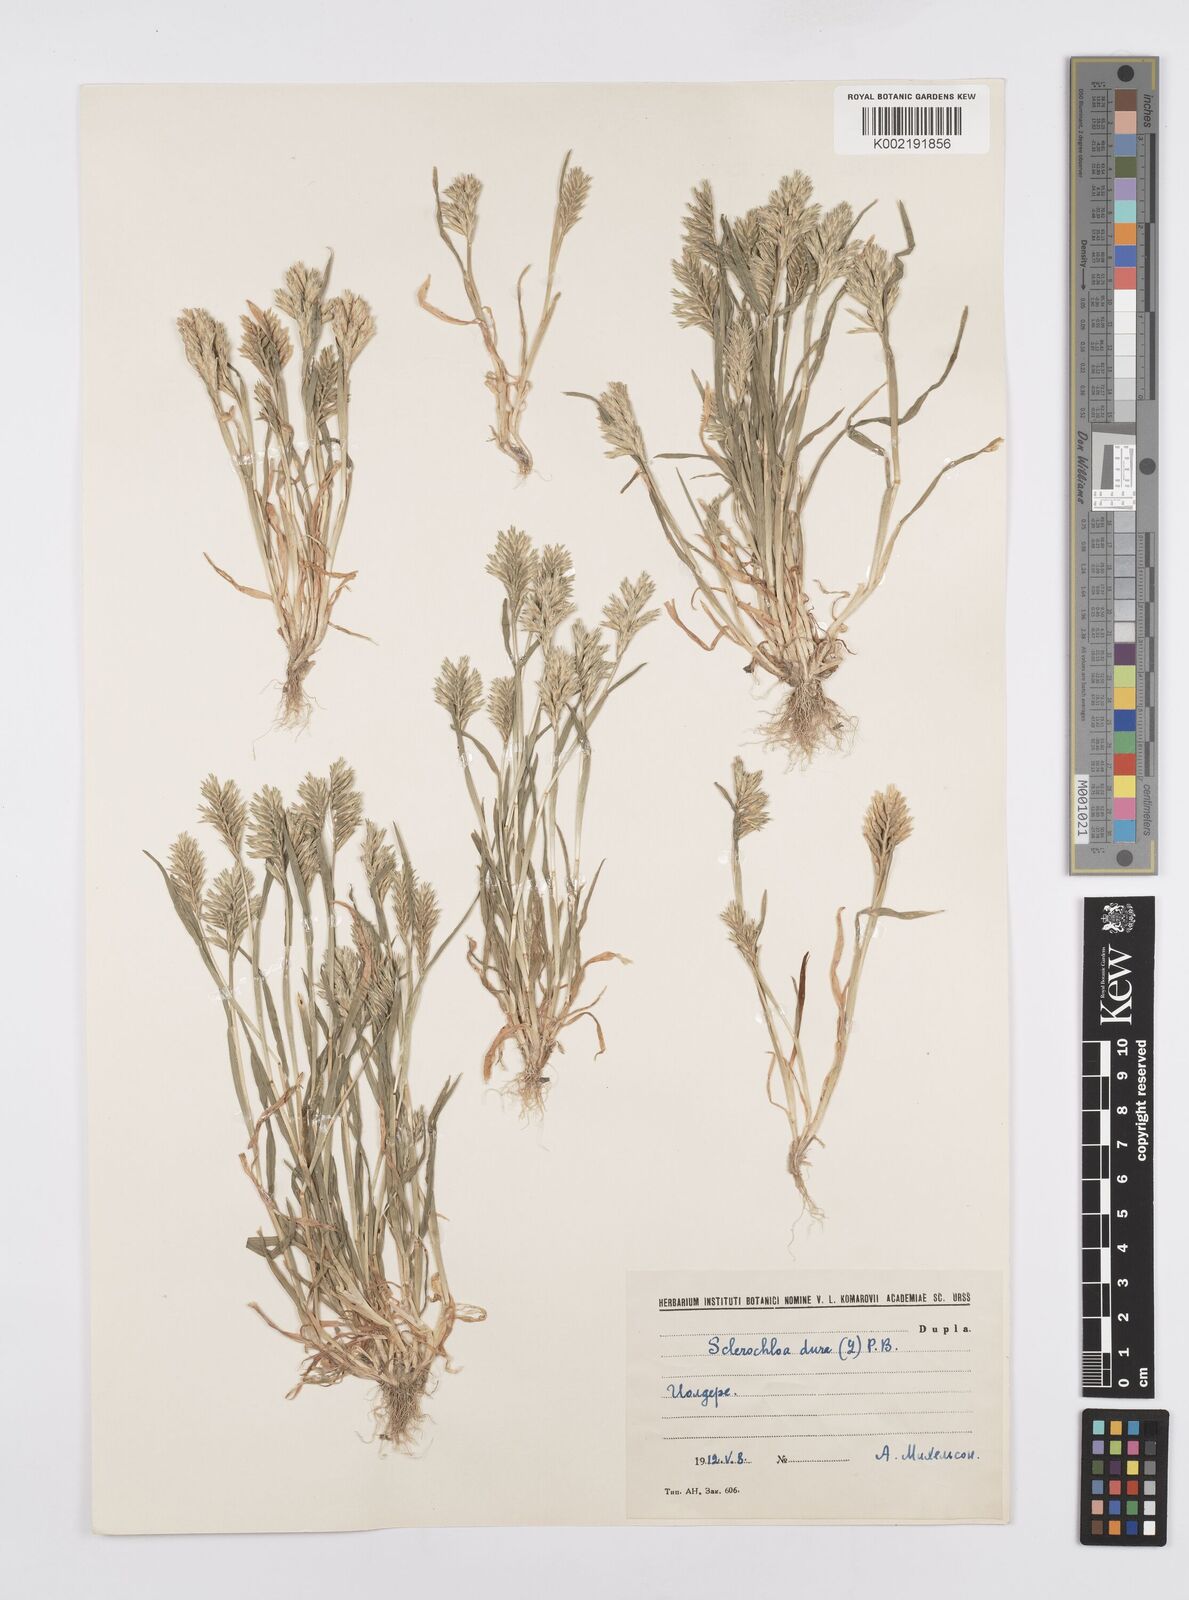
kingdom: Plantae
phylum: Tracheophyta
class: Liliopsida
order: Poales
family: Poaceae
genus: Sclerochloa
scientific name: Sclerochloa dura
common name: Common hardgrass
